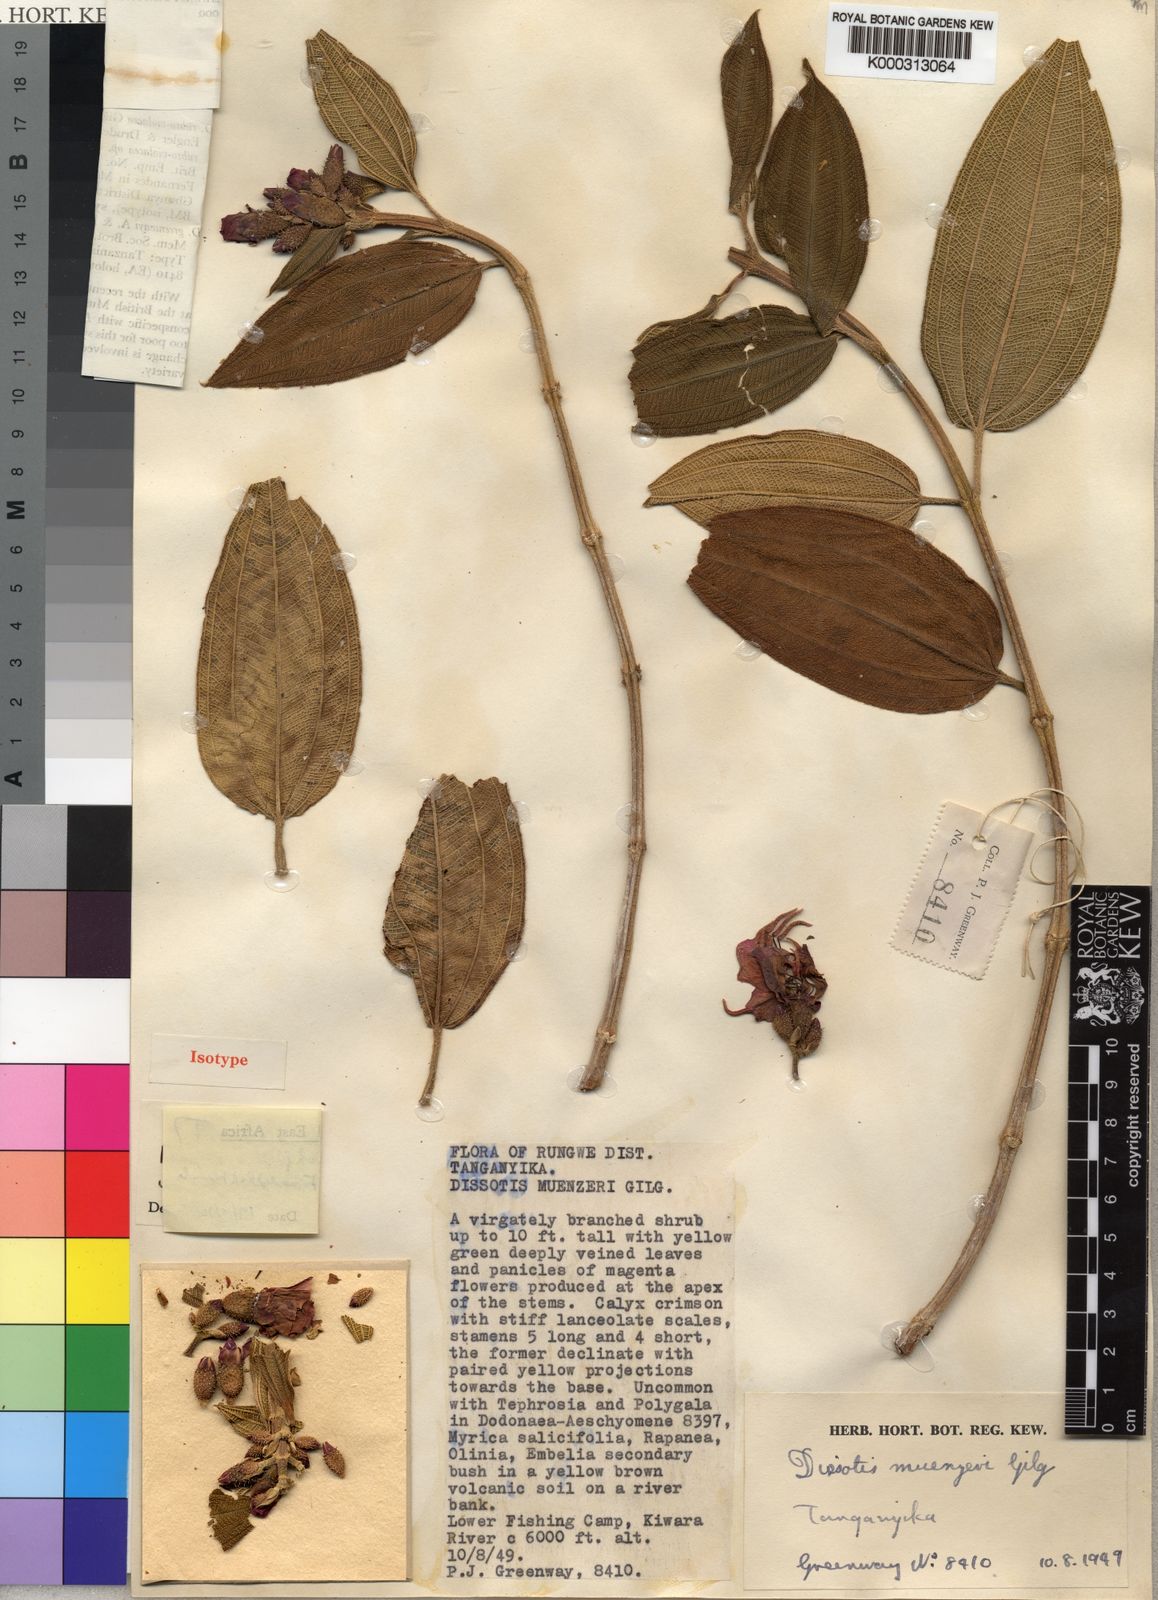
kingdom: Plantae
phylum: Tracheophyta
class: Magnoliopsida
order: Myrtales
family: Melastomataceae
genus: Dissotidendron
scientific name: Dissotidendron melleri
